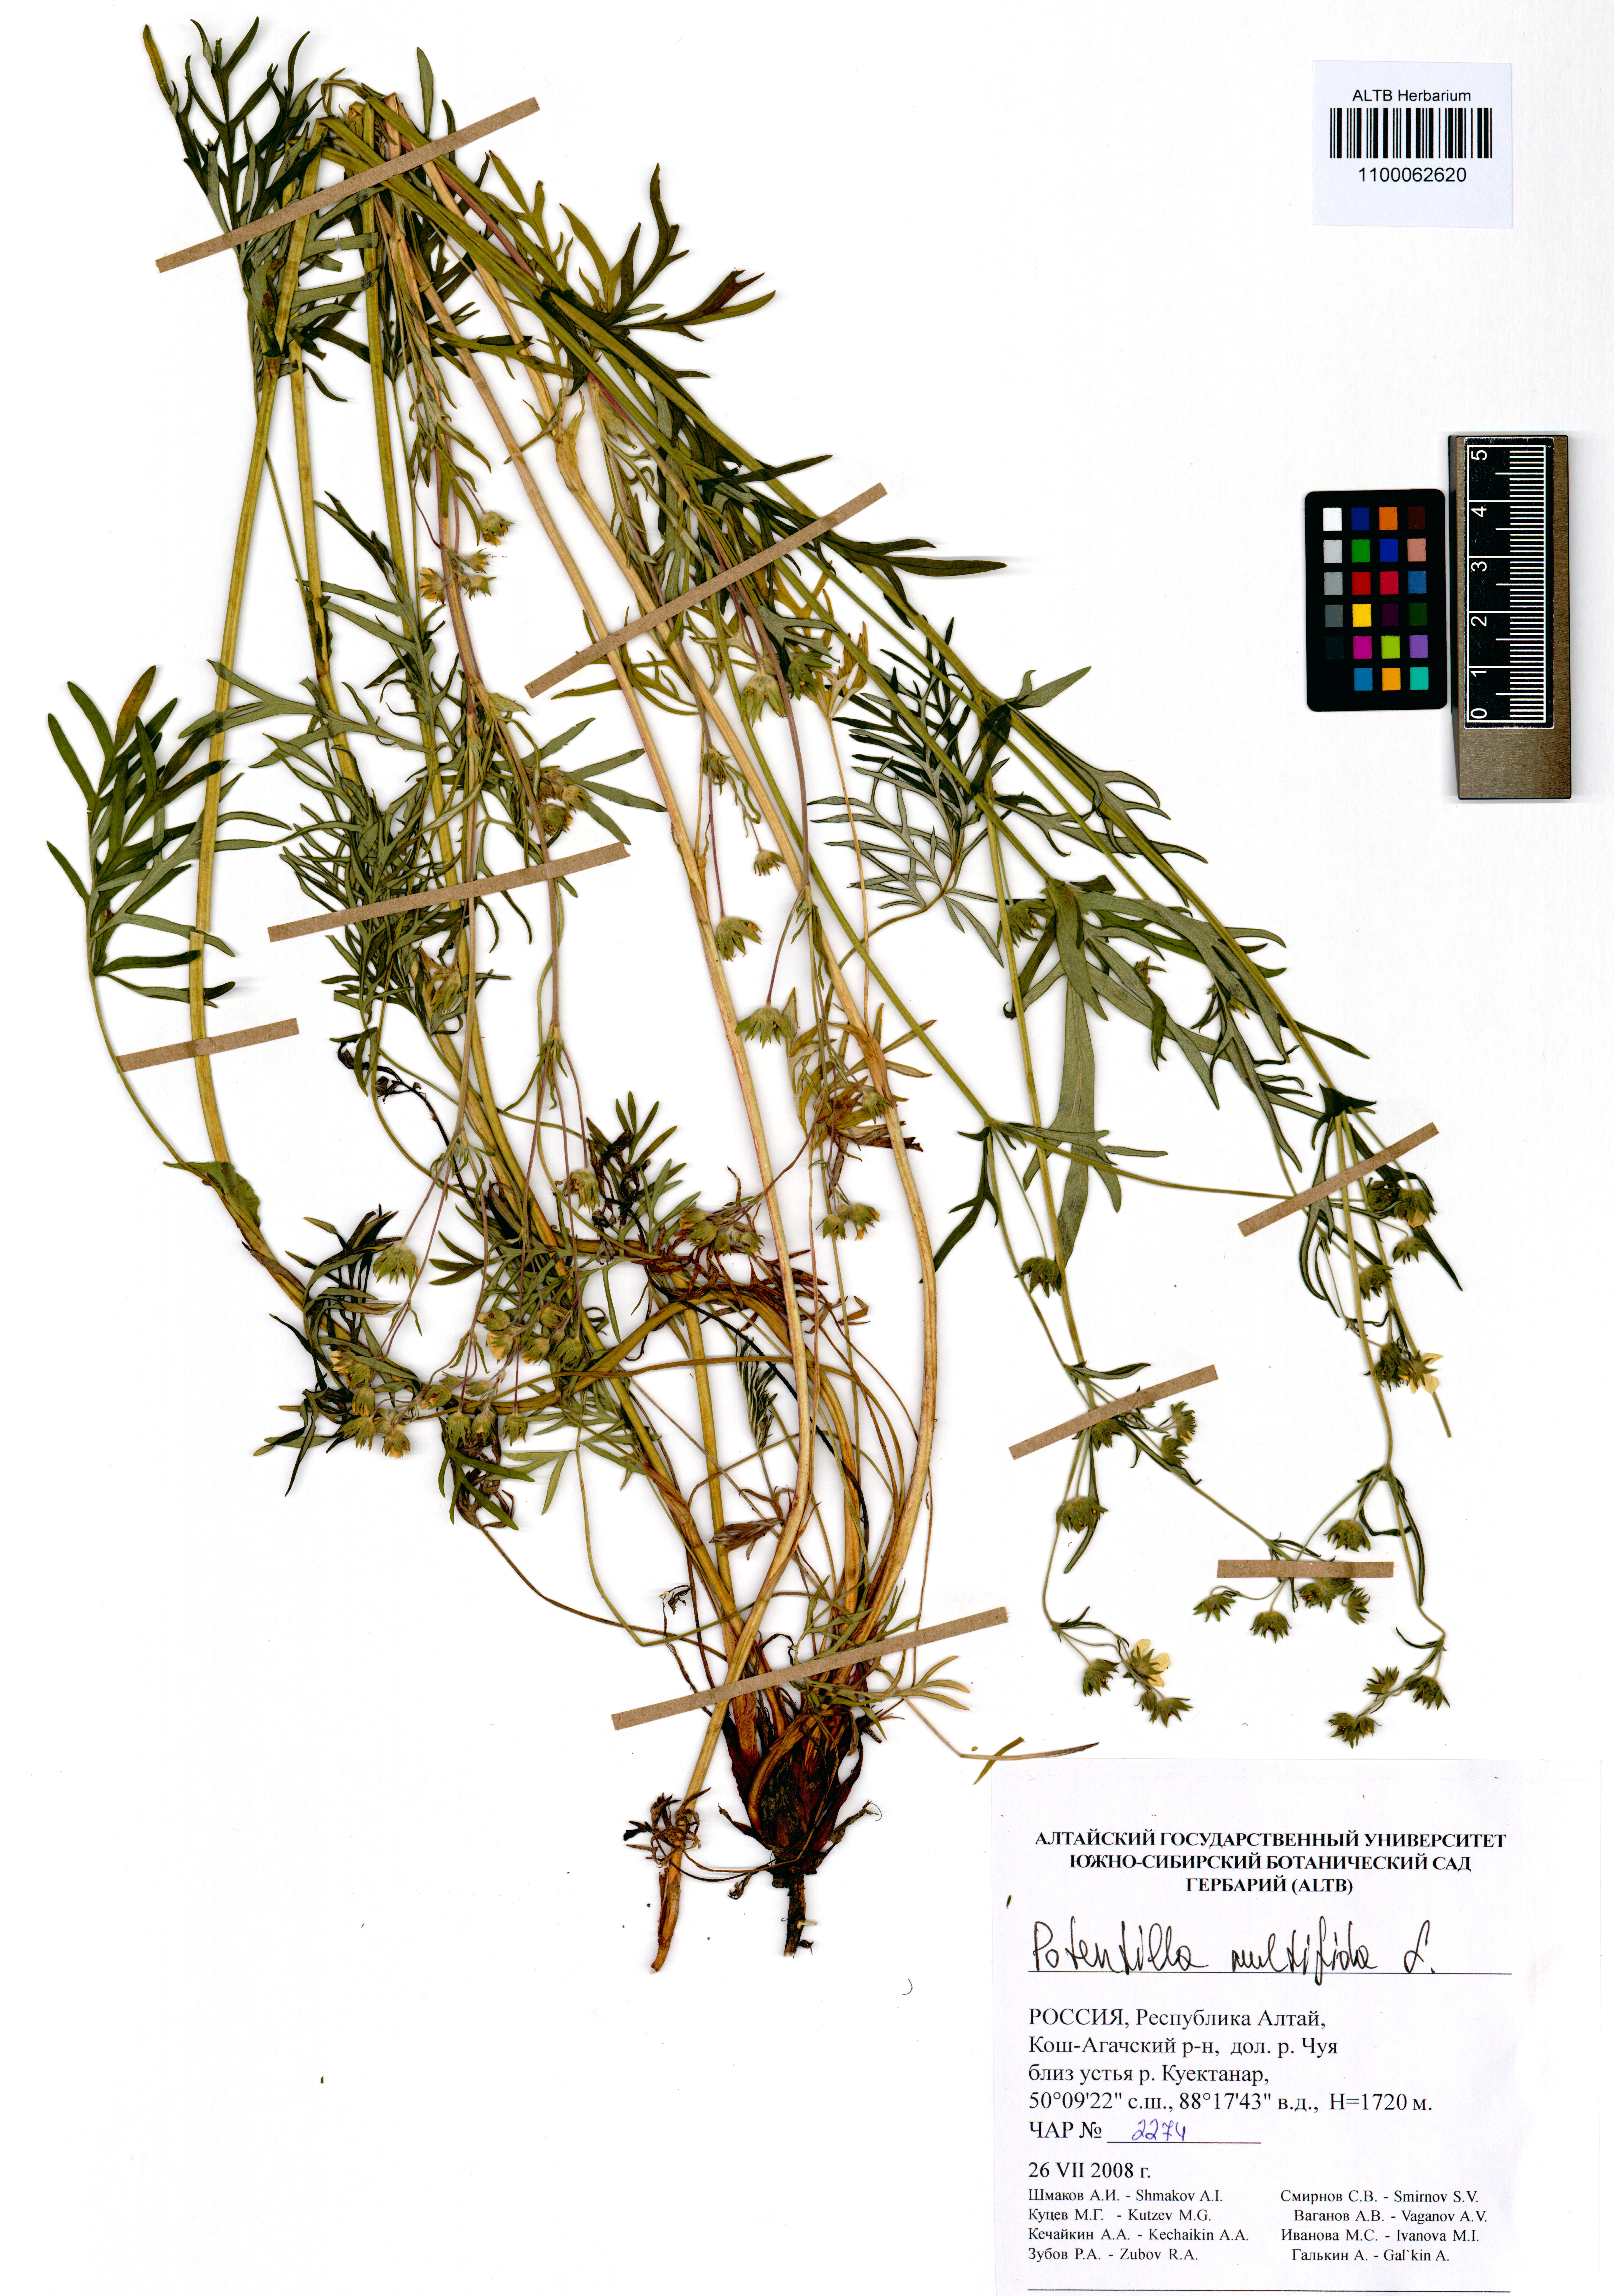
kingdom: Plantae
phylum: Tracheophyta
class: Magnoliopsida
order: Rosales
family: Rosaceae
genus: Potentilla
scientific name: Potentilla multifida
